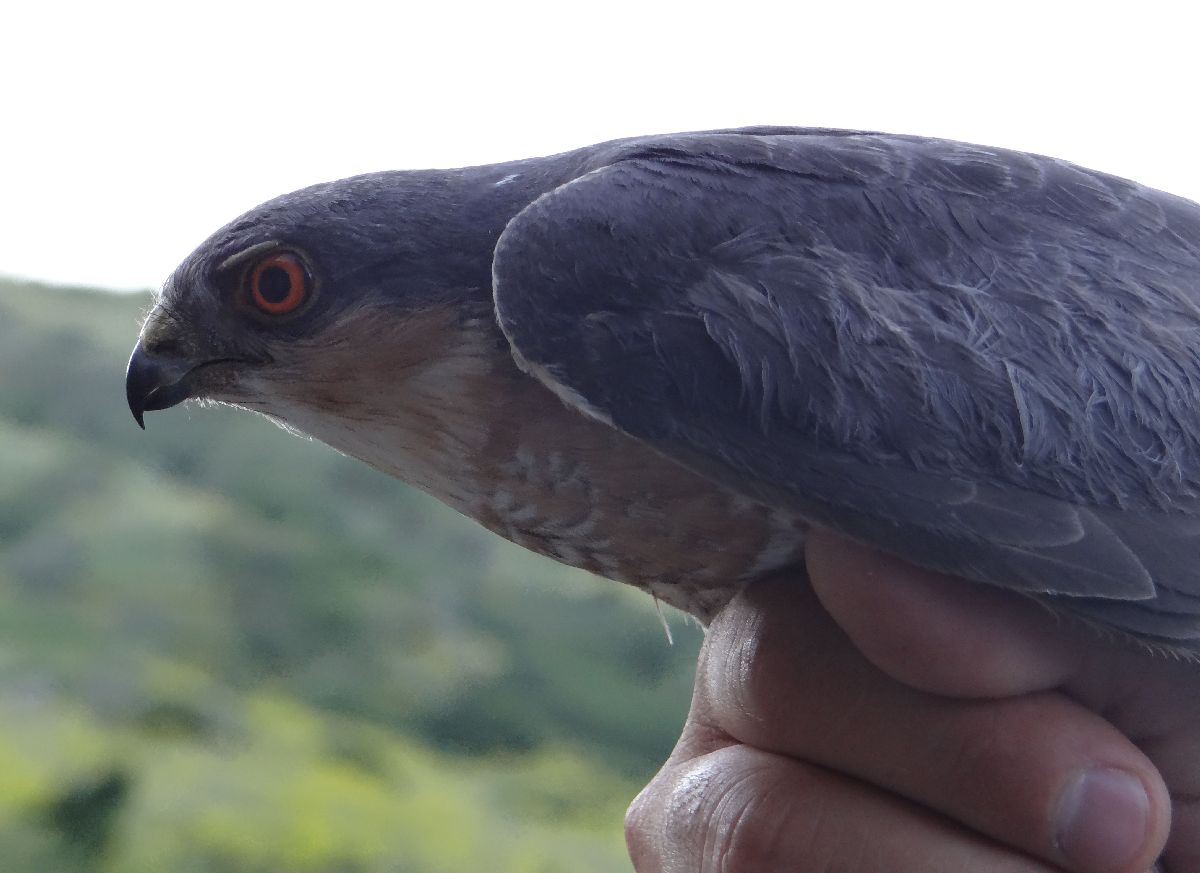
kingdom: Animalia
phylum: Chordata
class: Aves
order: Accipitriformes
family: Accipitridae
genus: Accipiter
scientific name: Accipiter nisus
